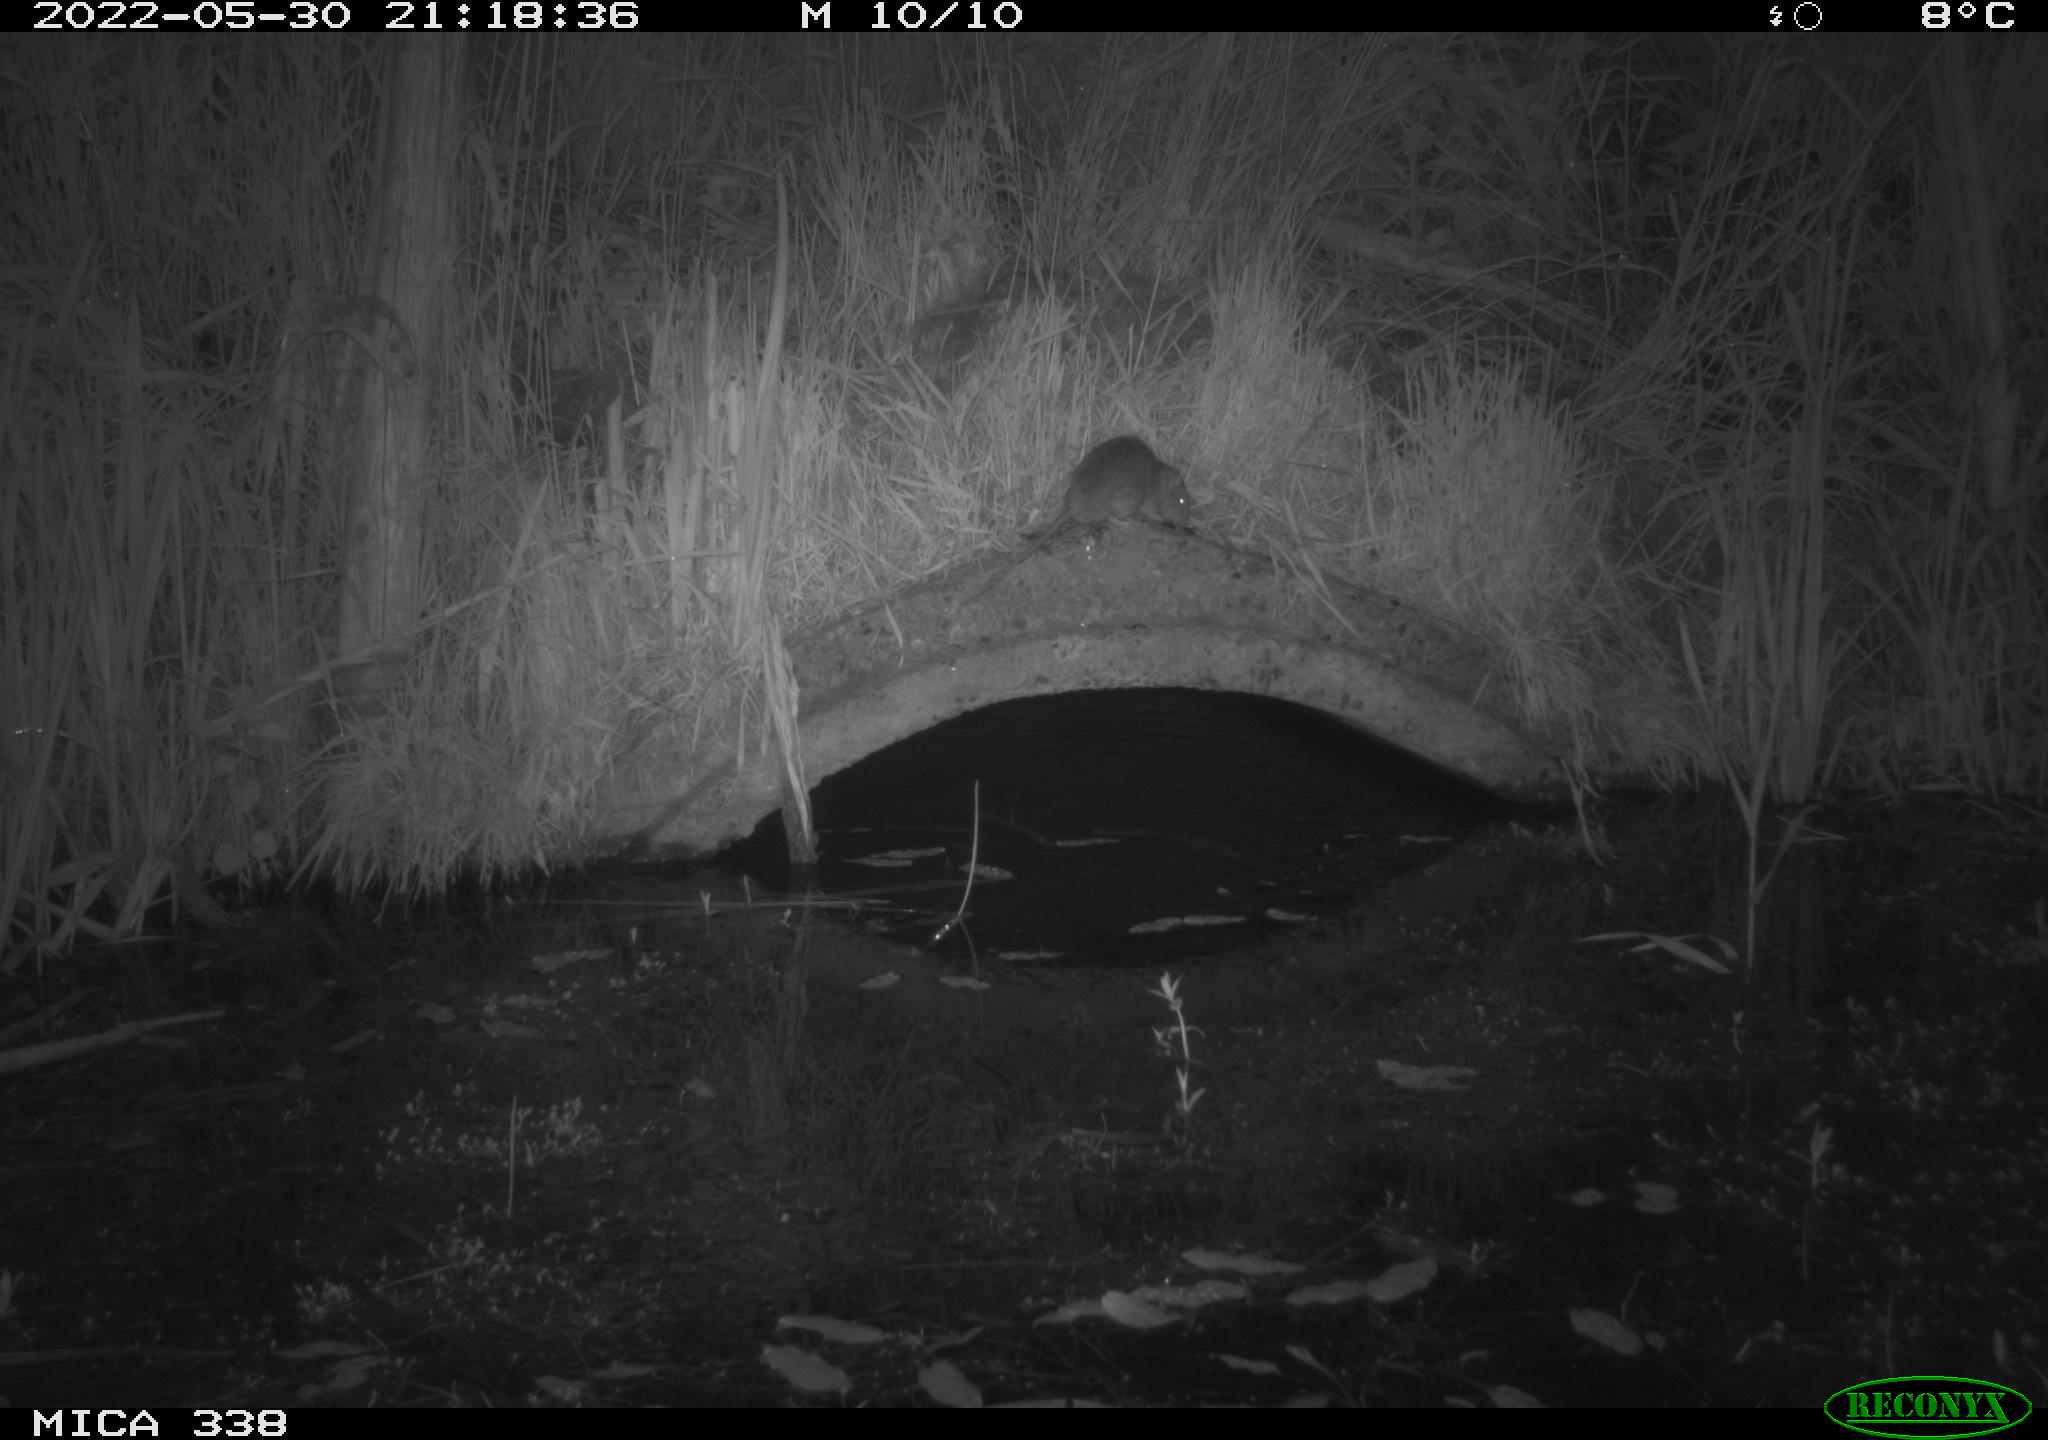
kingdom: Animalia
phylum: Chordata
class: Mammalia
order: Rodentia
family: Muridae
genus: Rattus
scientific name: Rattus norvegicus
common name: Brown rat
